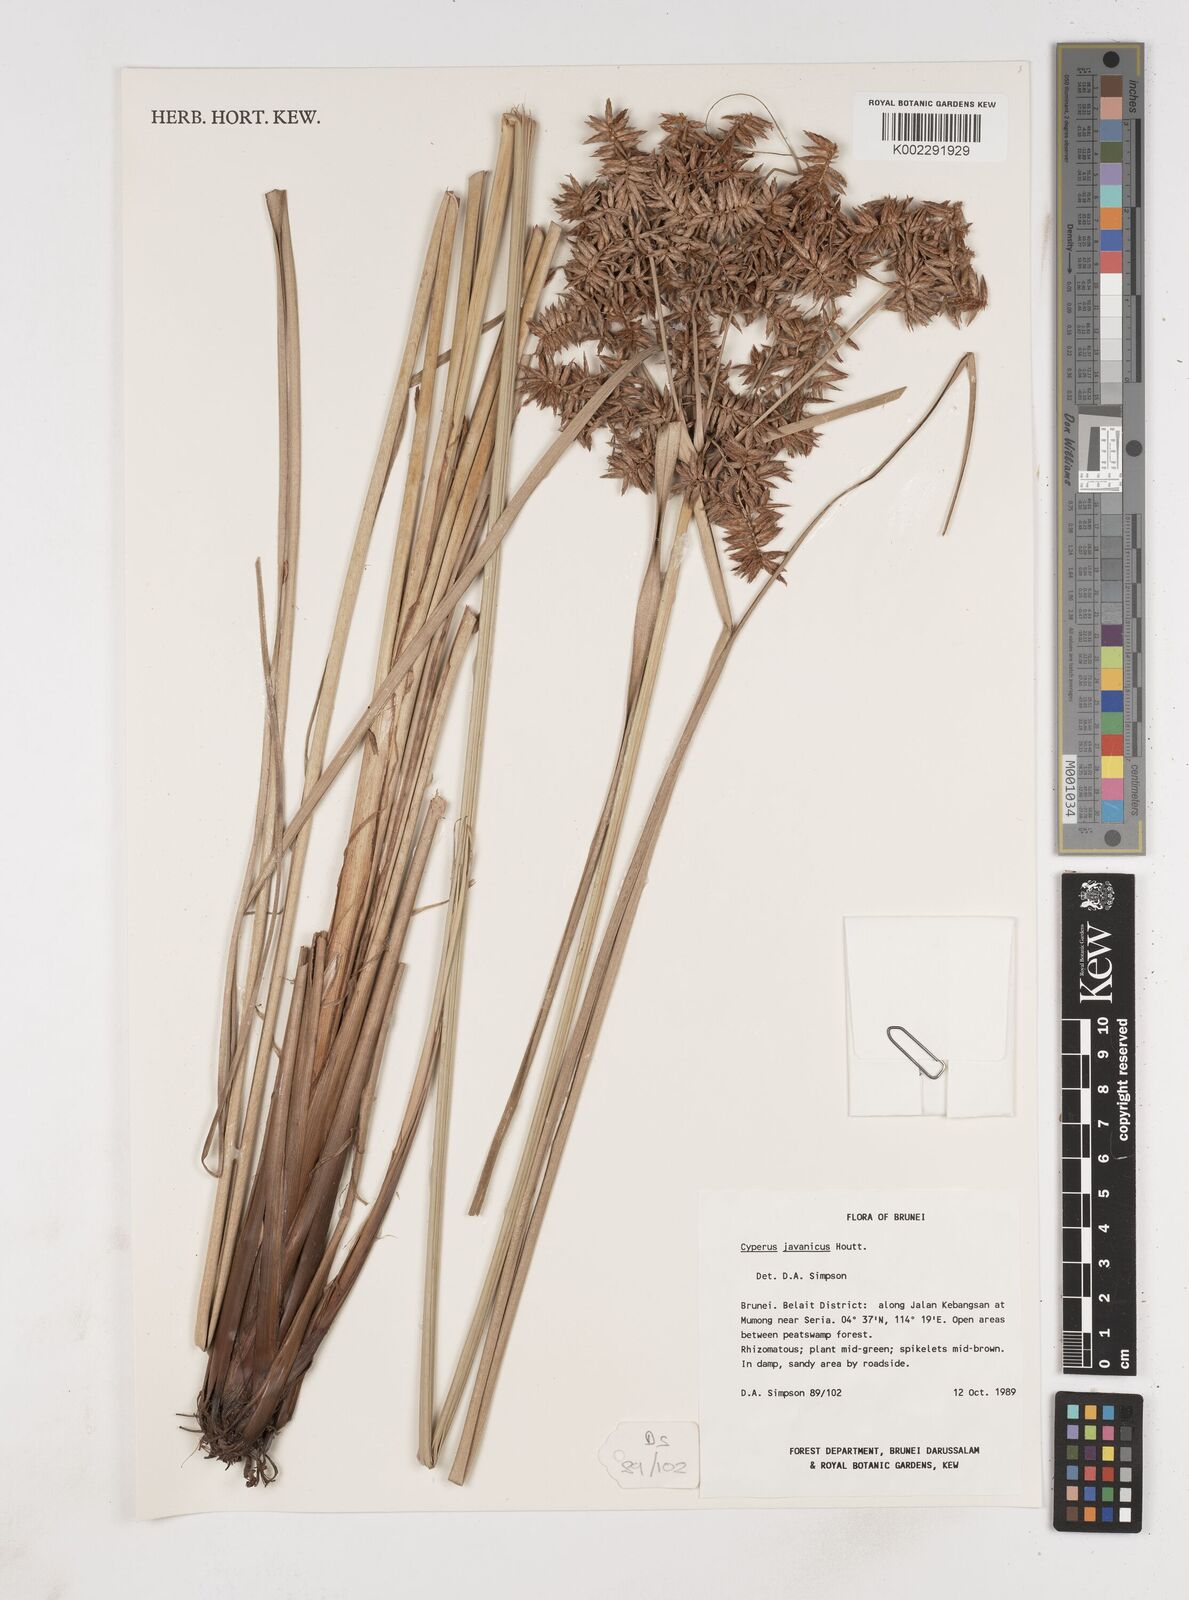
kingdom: Plantae
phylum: Tracheophyta
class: Liliopsida
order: Poales
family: Cyperaceae
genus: Cyperus
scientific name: Cyperus javanicus
